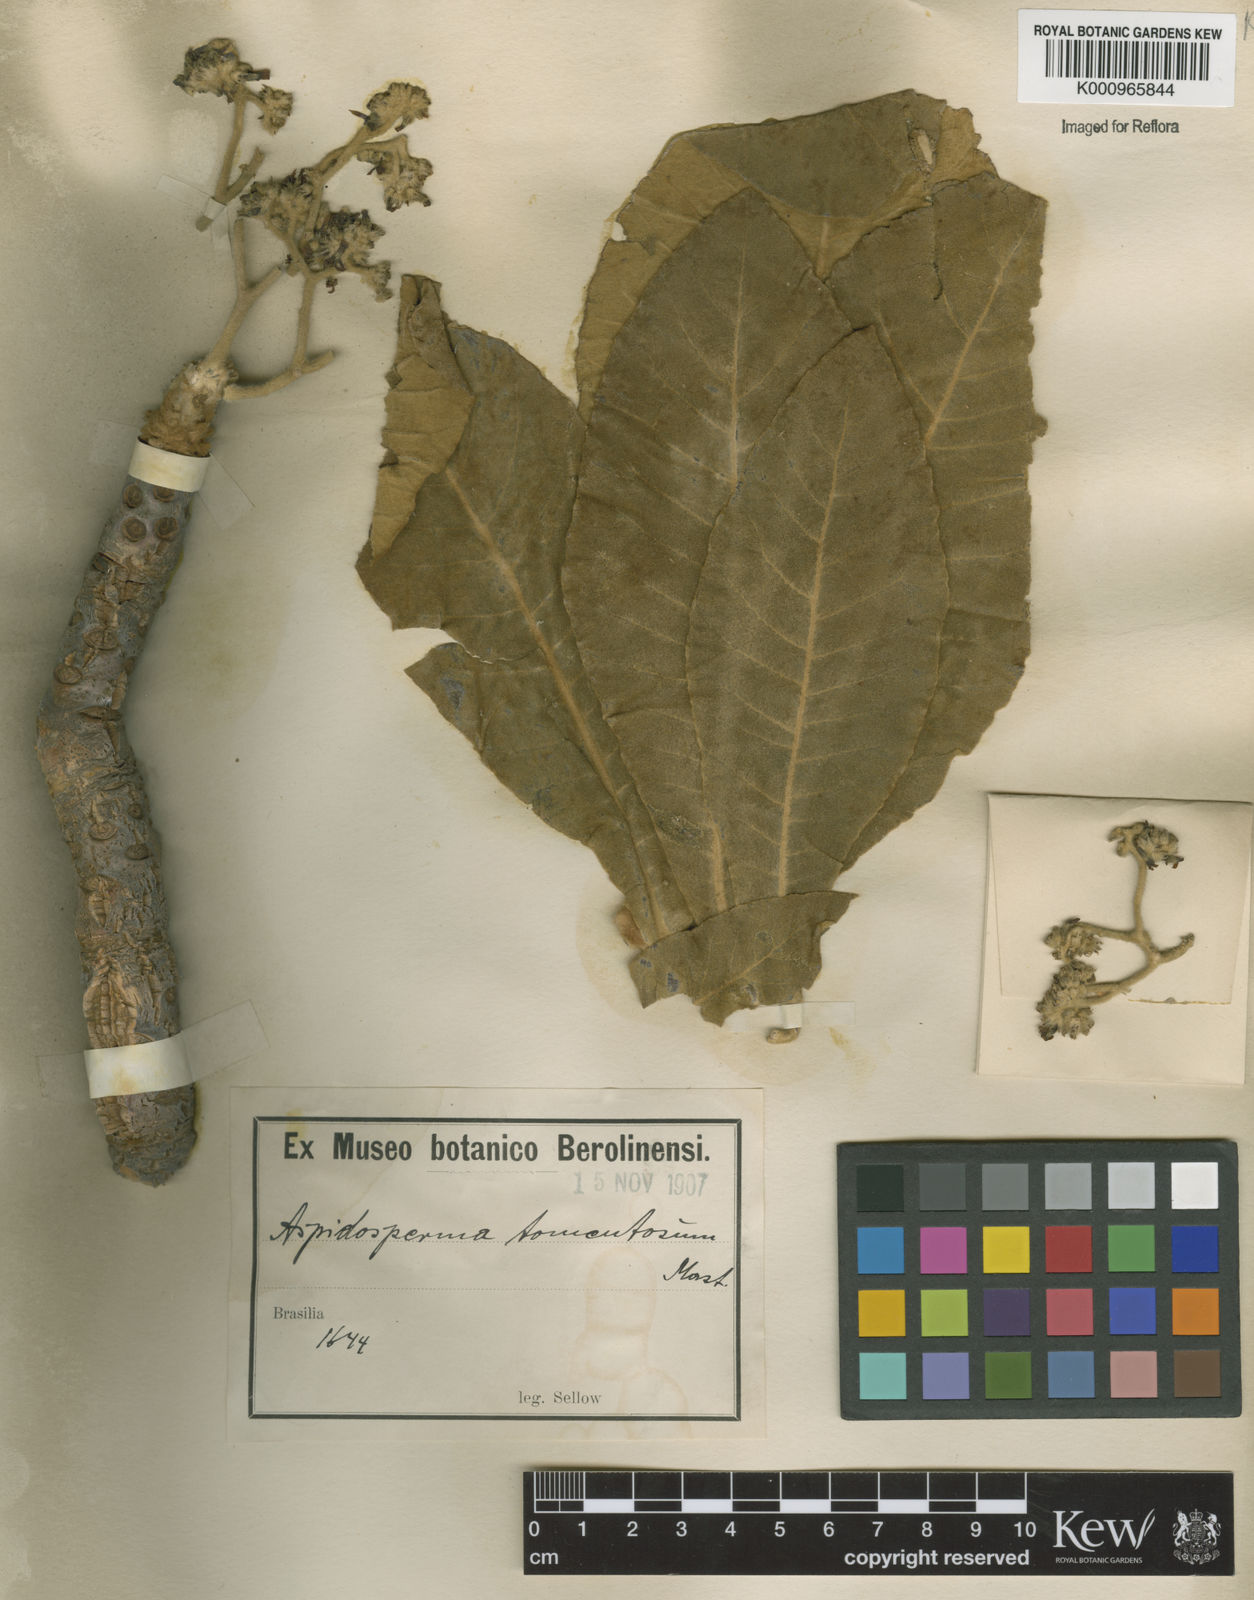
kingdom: Plantae
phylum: Tracheophyta
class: Magnoliopsida
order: Gentianales
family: Apocynaceae
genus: Aspidosperma
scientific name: Aspidosperma tomentosum
